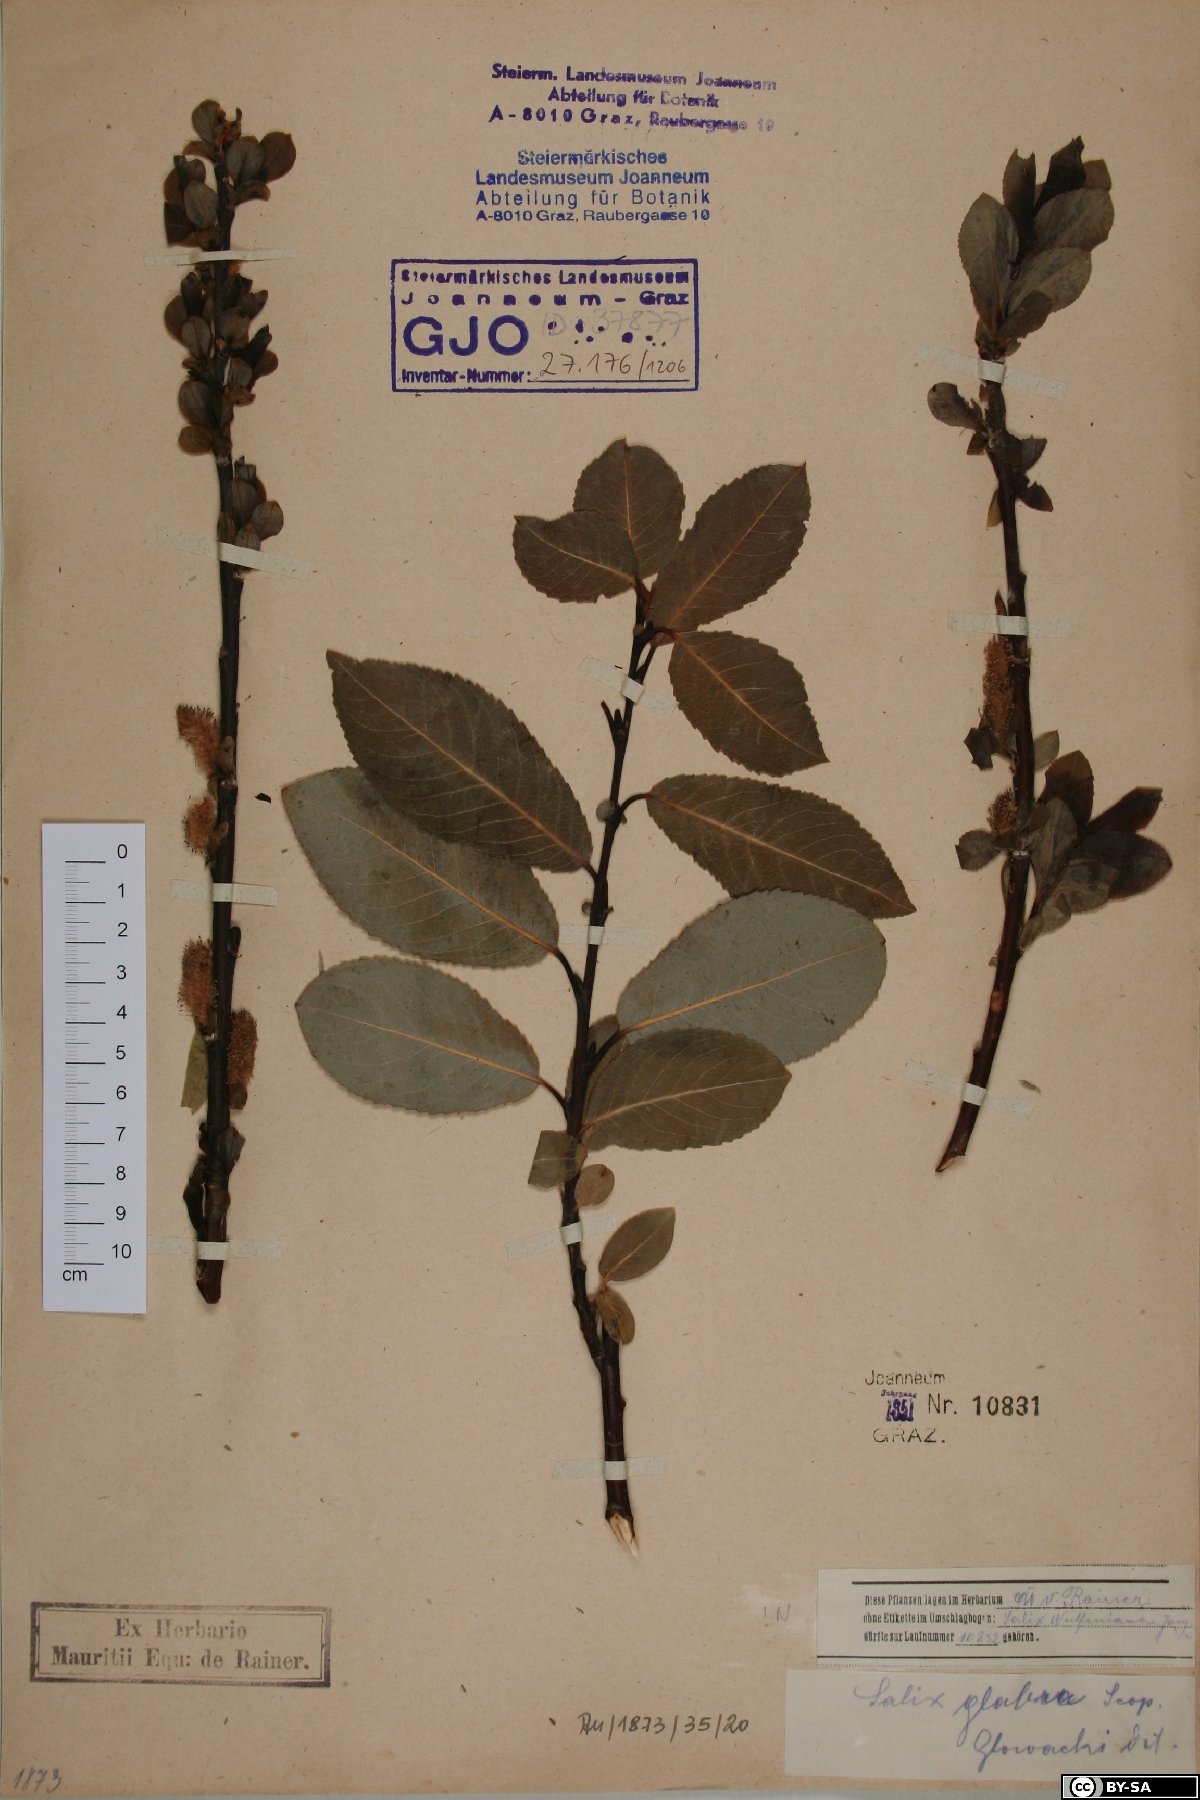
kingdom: Plantae
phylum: Tracheophyta
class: Magnoliopsida
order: Malpighiales
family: Salicaceae
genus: Salix
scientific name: Salix glabra
